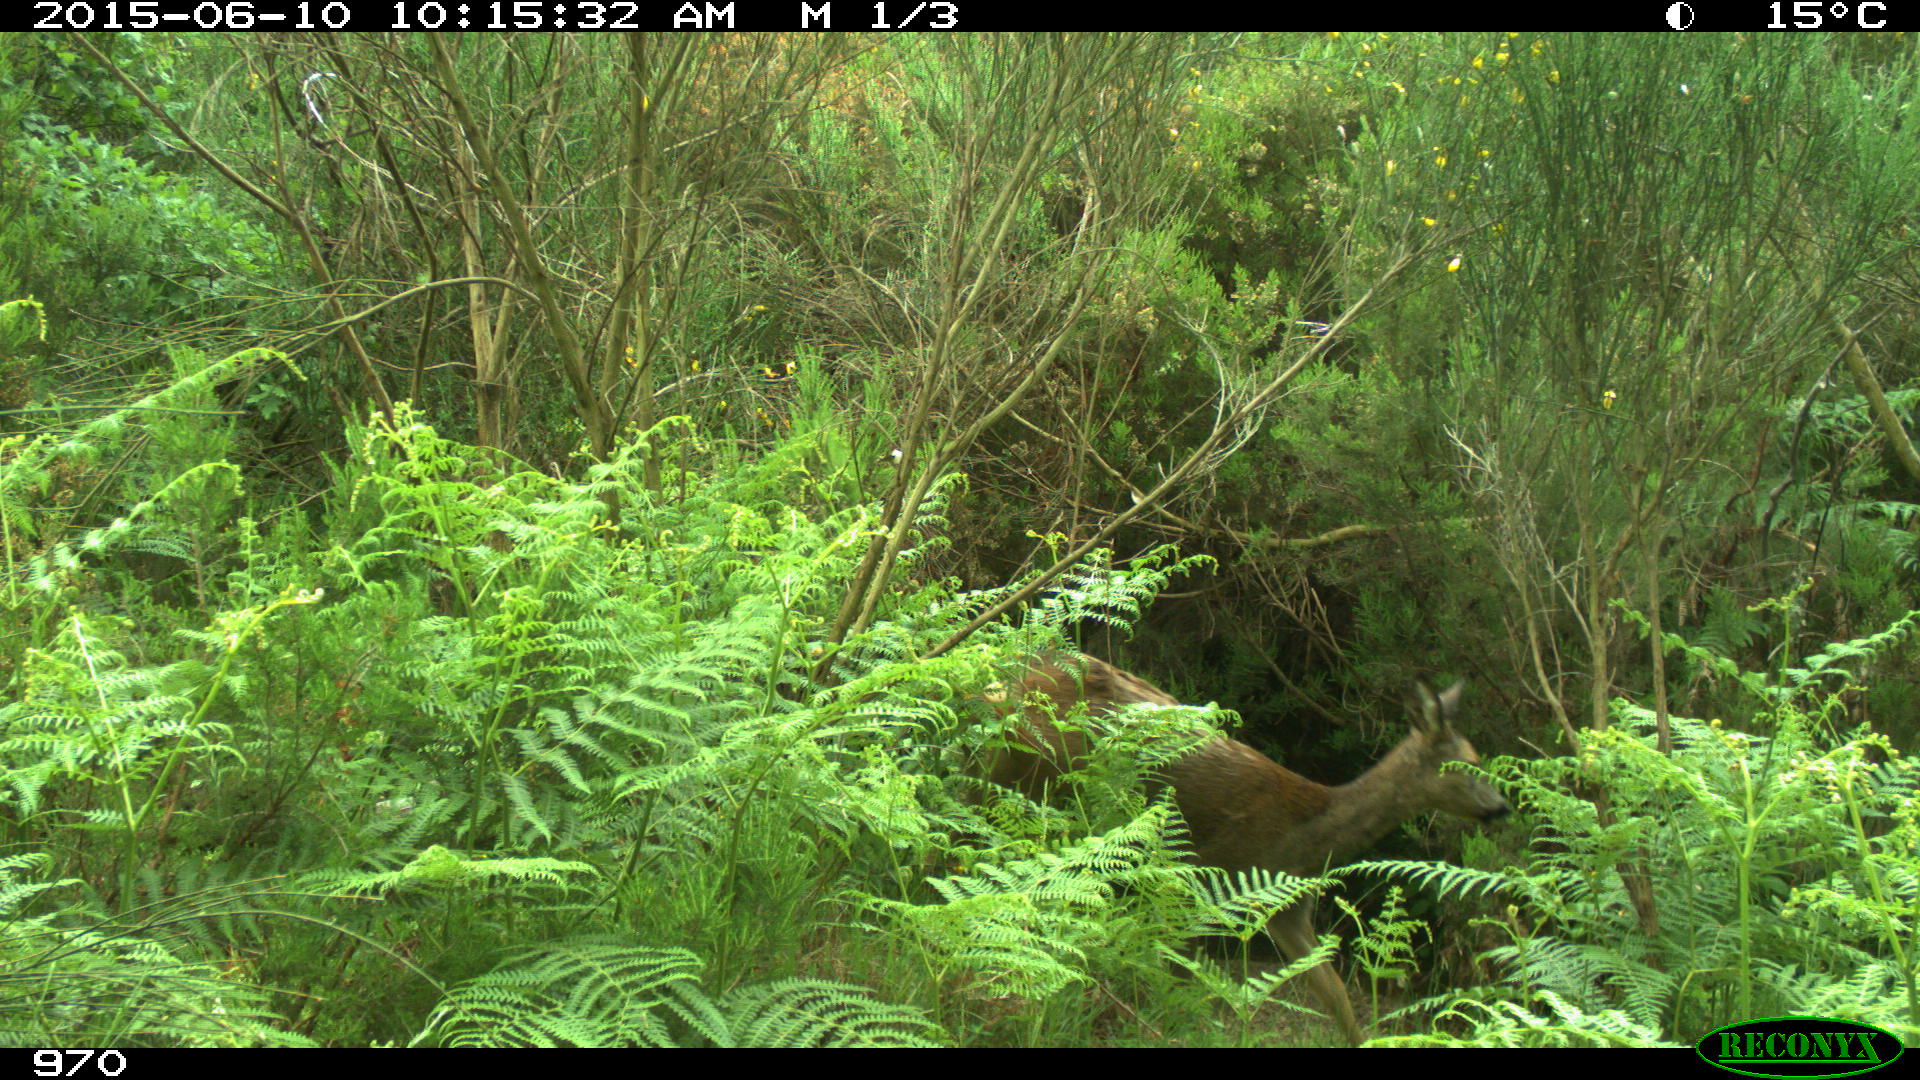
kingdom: Animalia
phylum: Chordata
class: Mammalia
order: Artiodactyla
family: Cervidae
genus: Capreolus
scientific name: Capreolus capreolus
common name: Western roe deer
